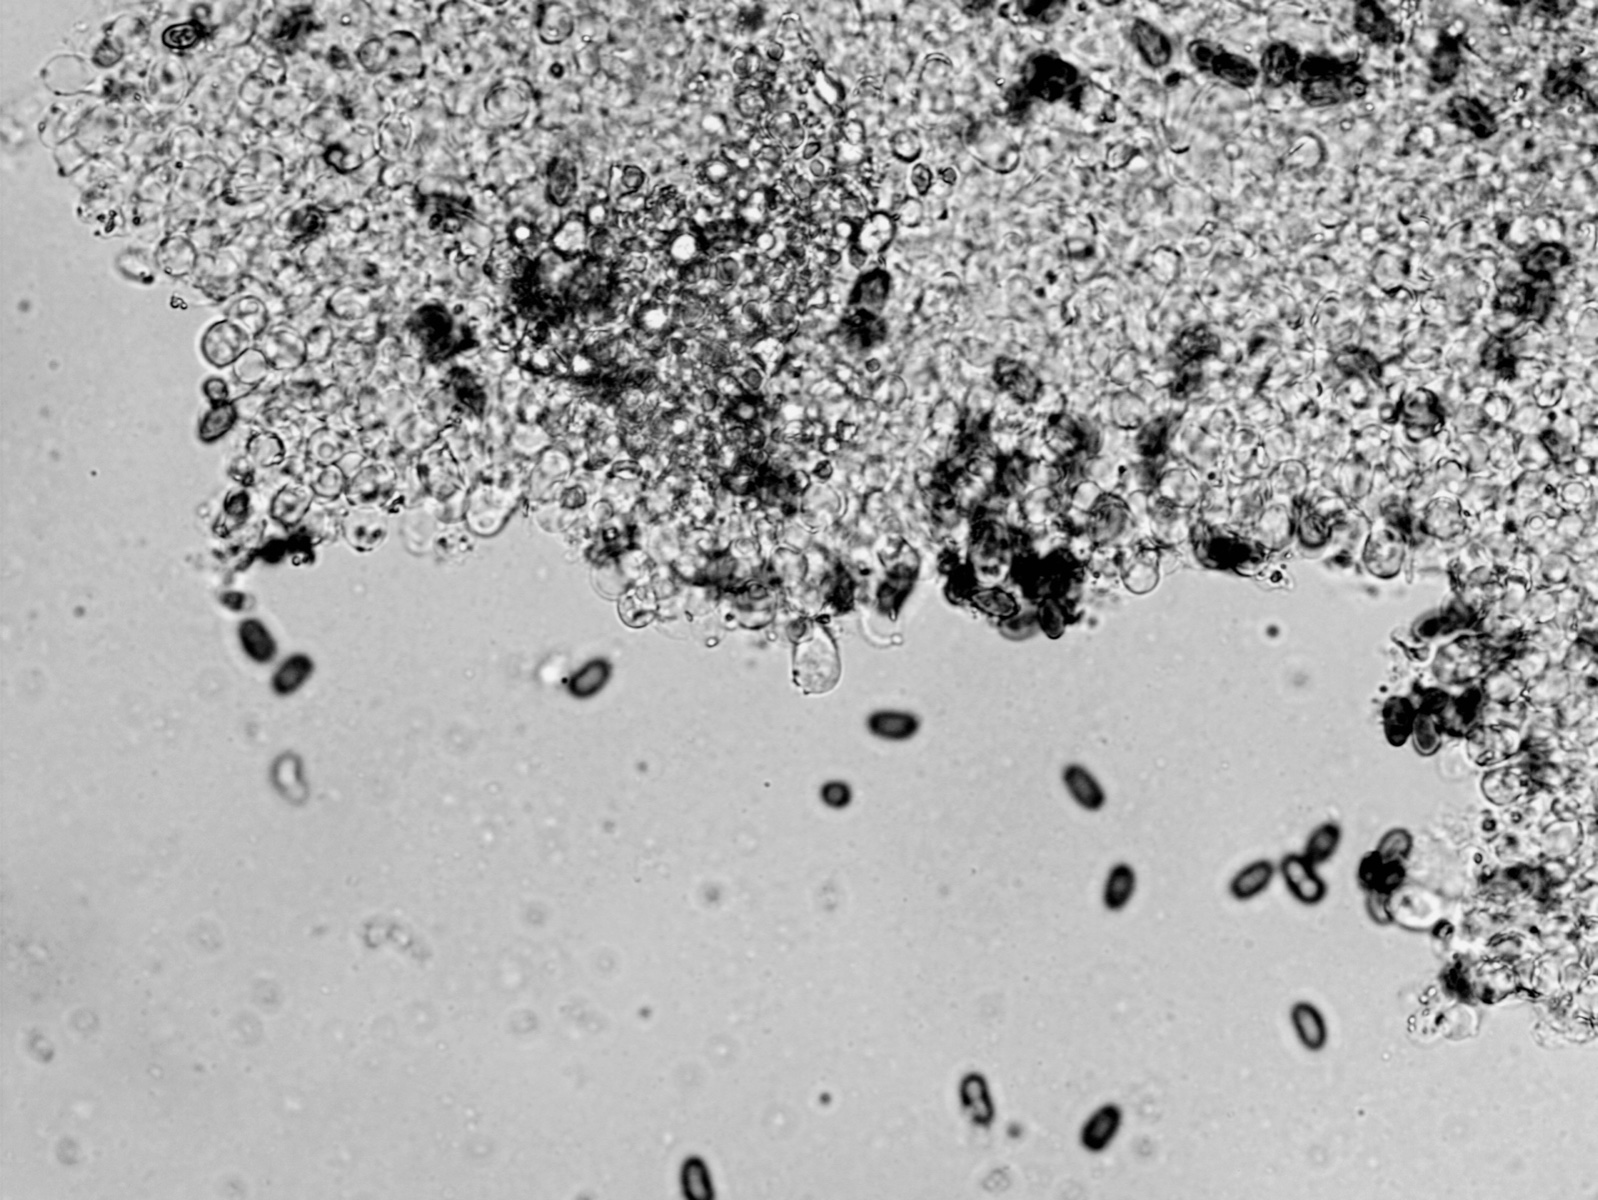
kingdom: Fungi
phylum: Basidiomycota
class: Agaricomycetes
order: Agaricales
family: Psathyrellaceae
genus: Psathyrella
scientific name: Psathyrella spadiceogrisea
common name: gråbrun mørkhat
